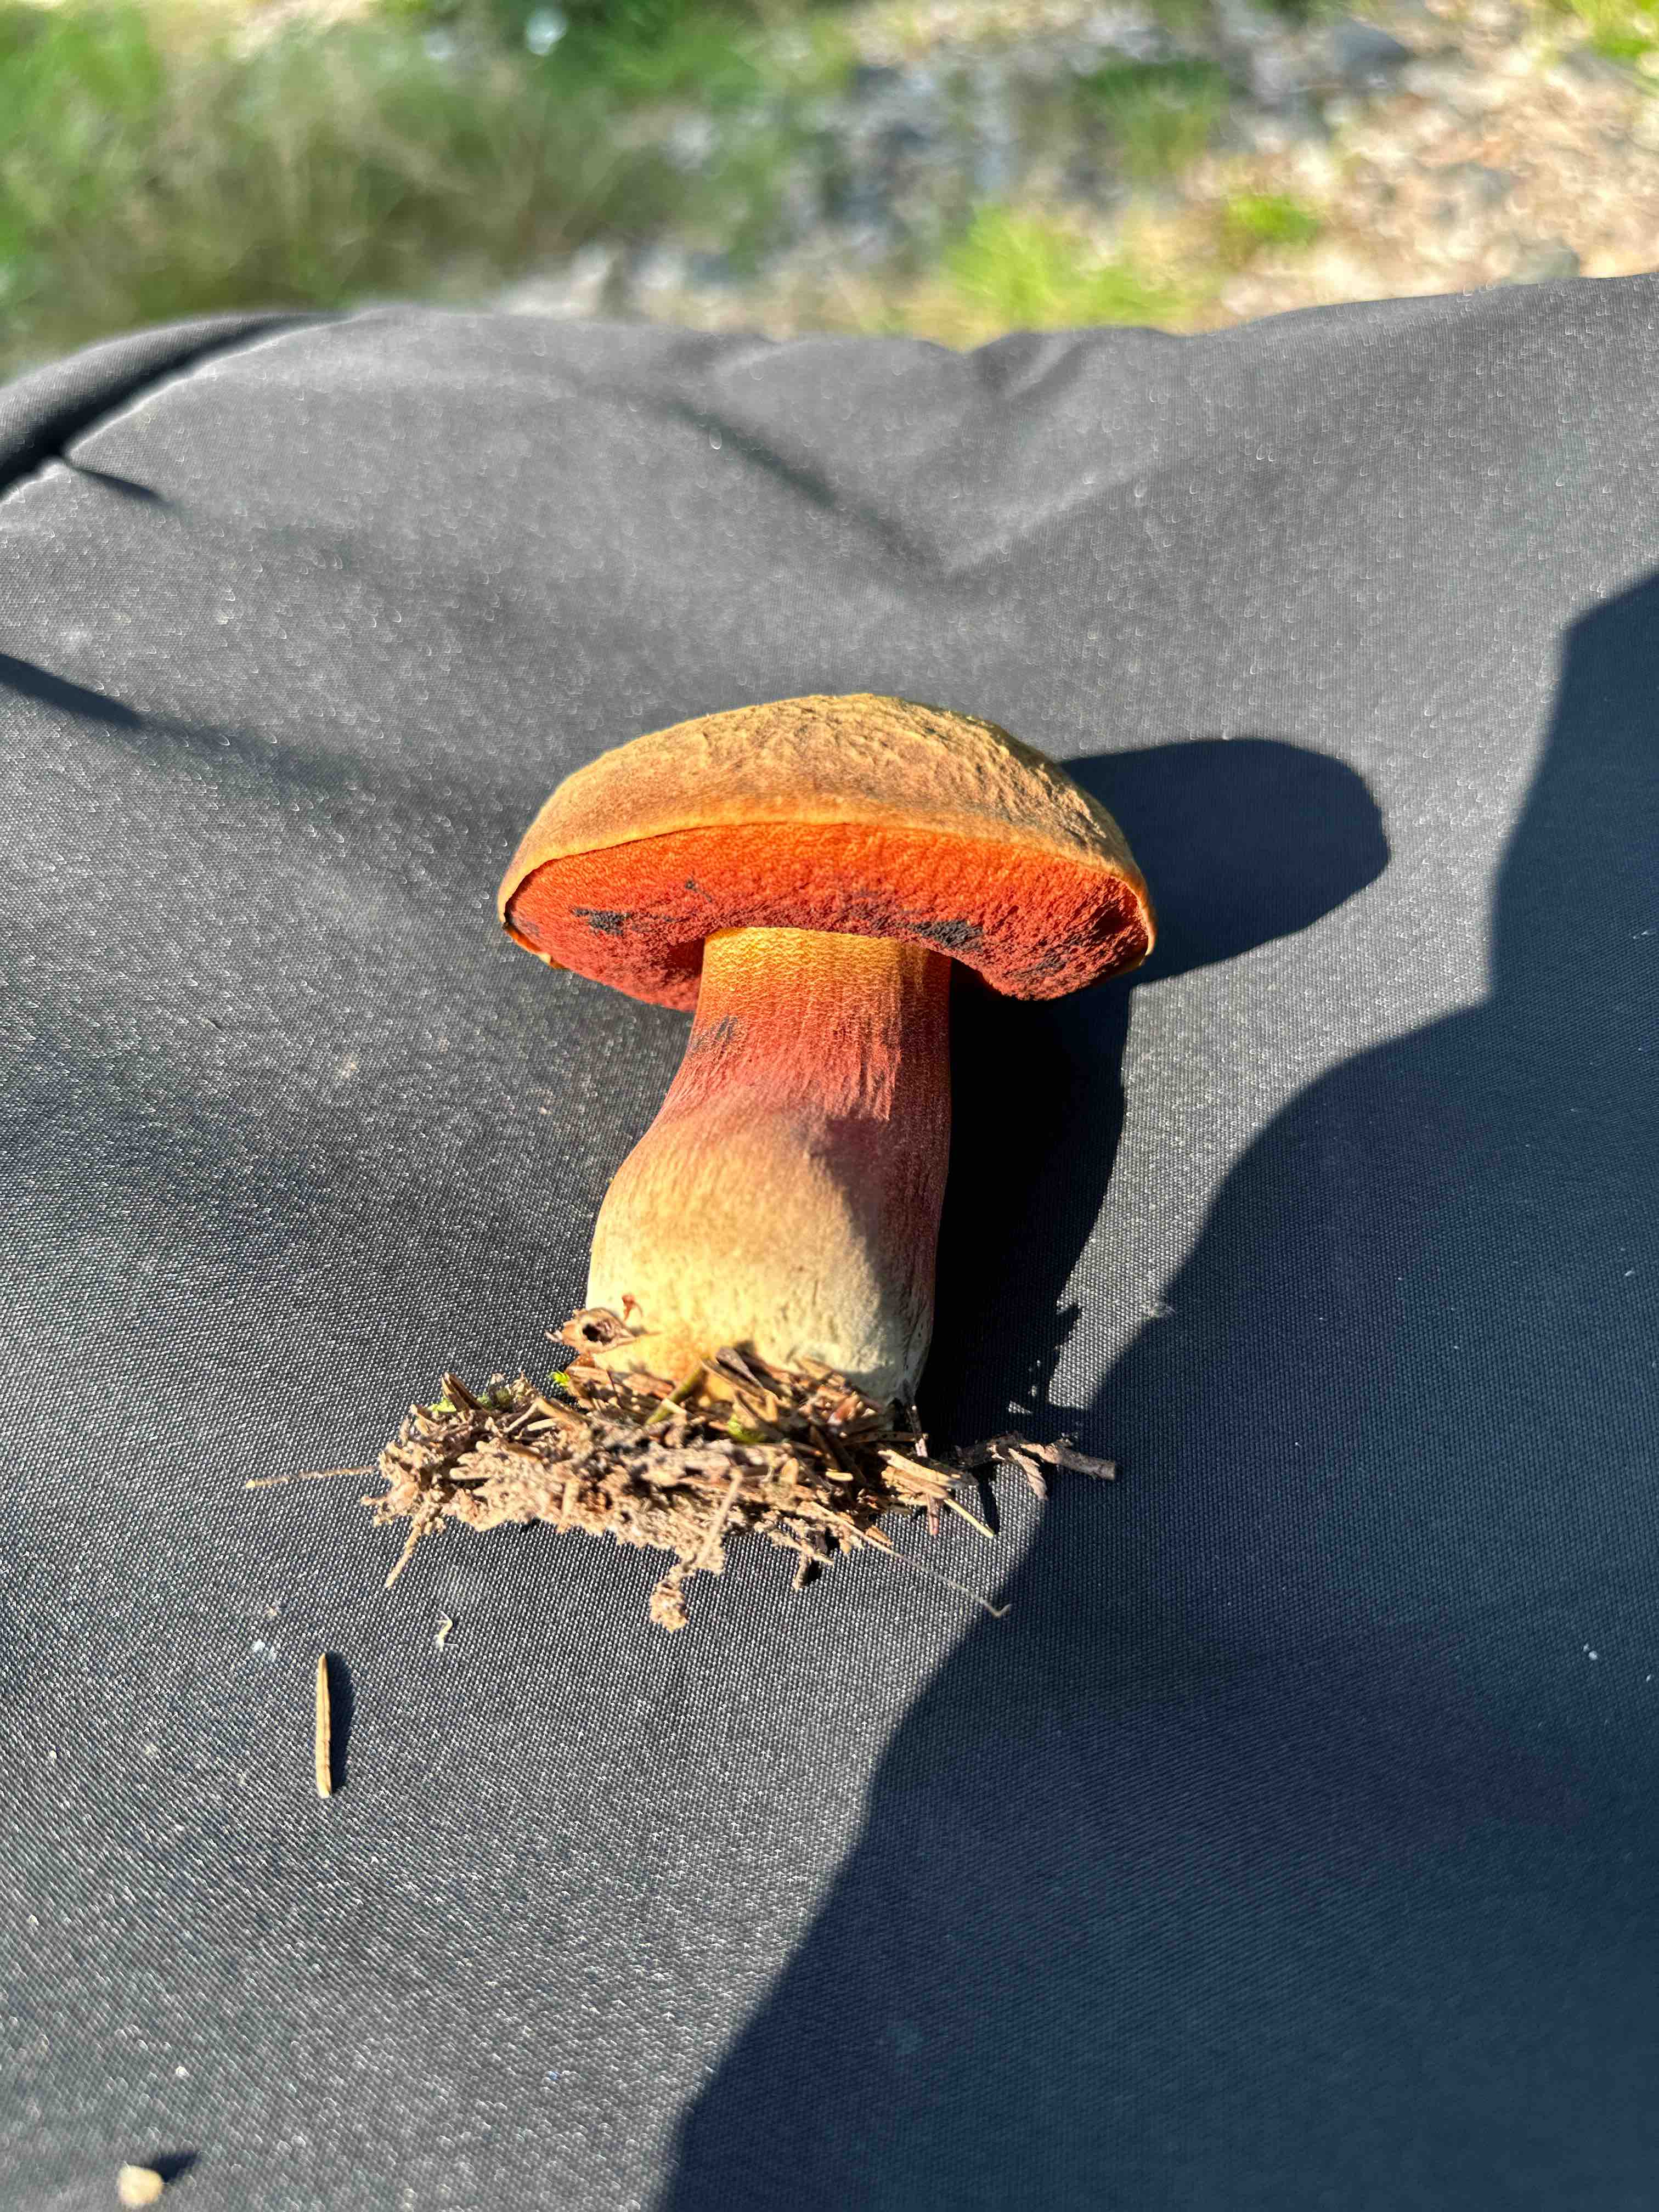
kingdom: Fungi
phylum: Basidiomycota
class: Agaricomycetes
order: Boletales
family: Boletaceae
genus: Neoboletus
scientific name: Neoboletus erythropus
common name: punktstokket indigorørhat
